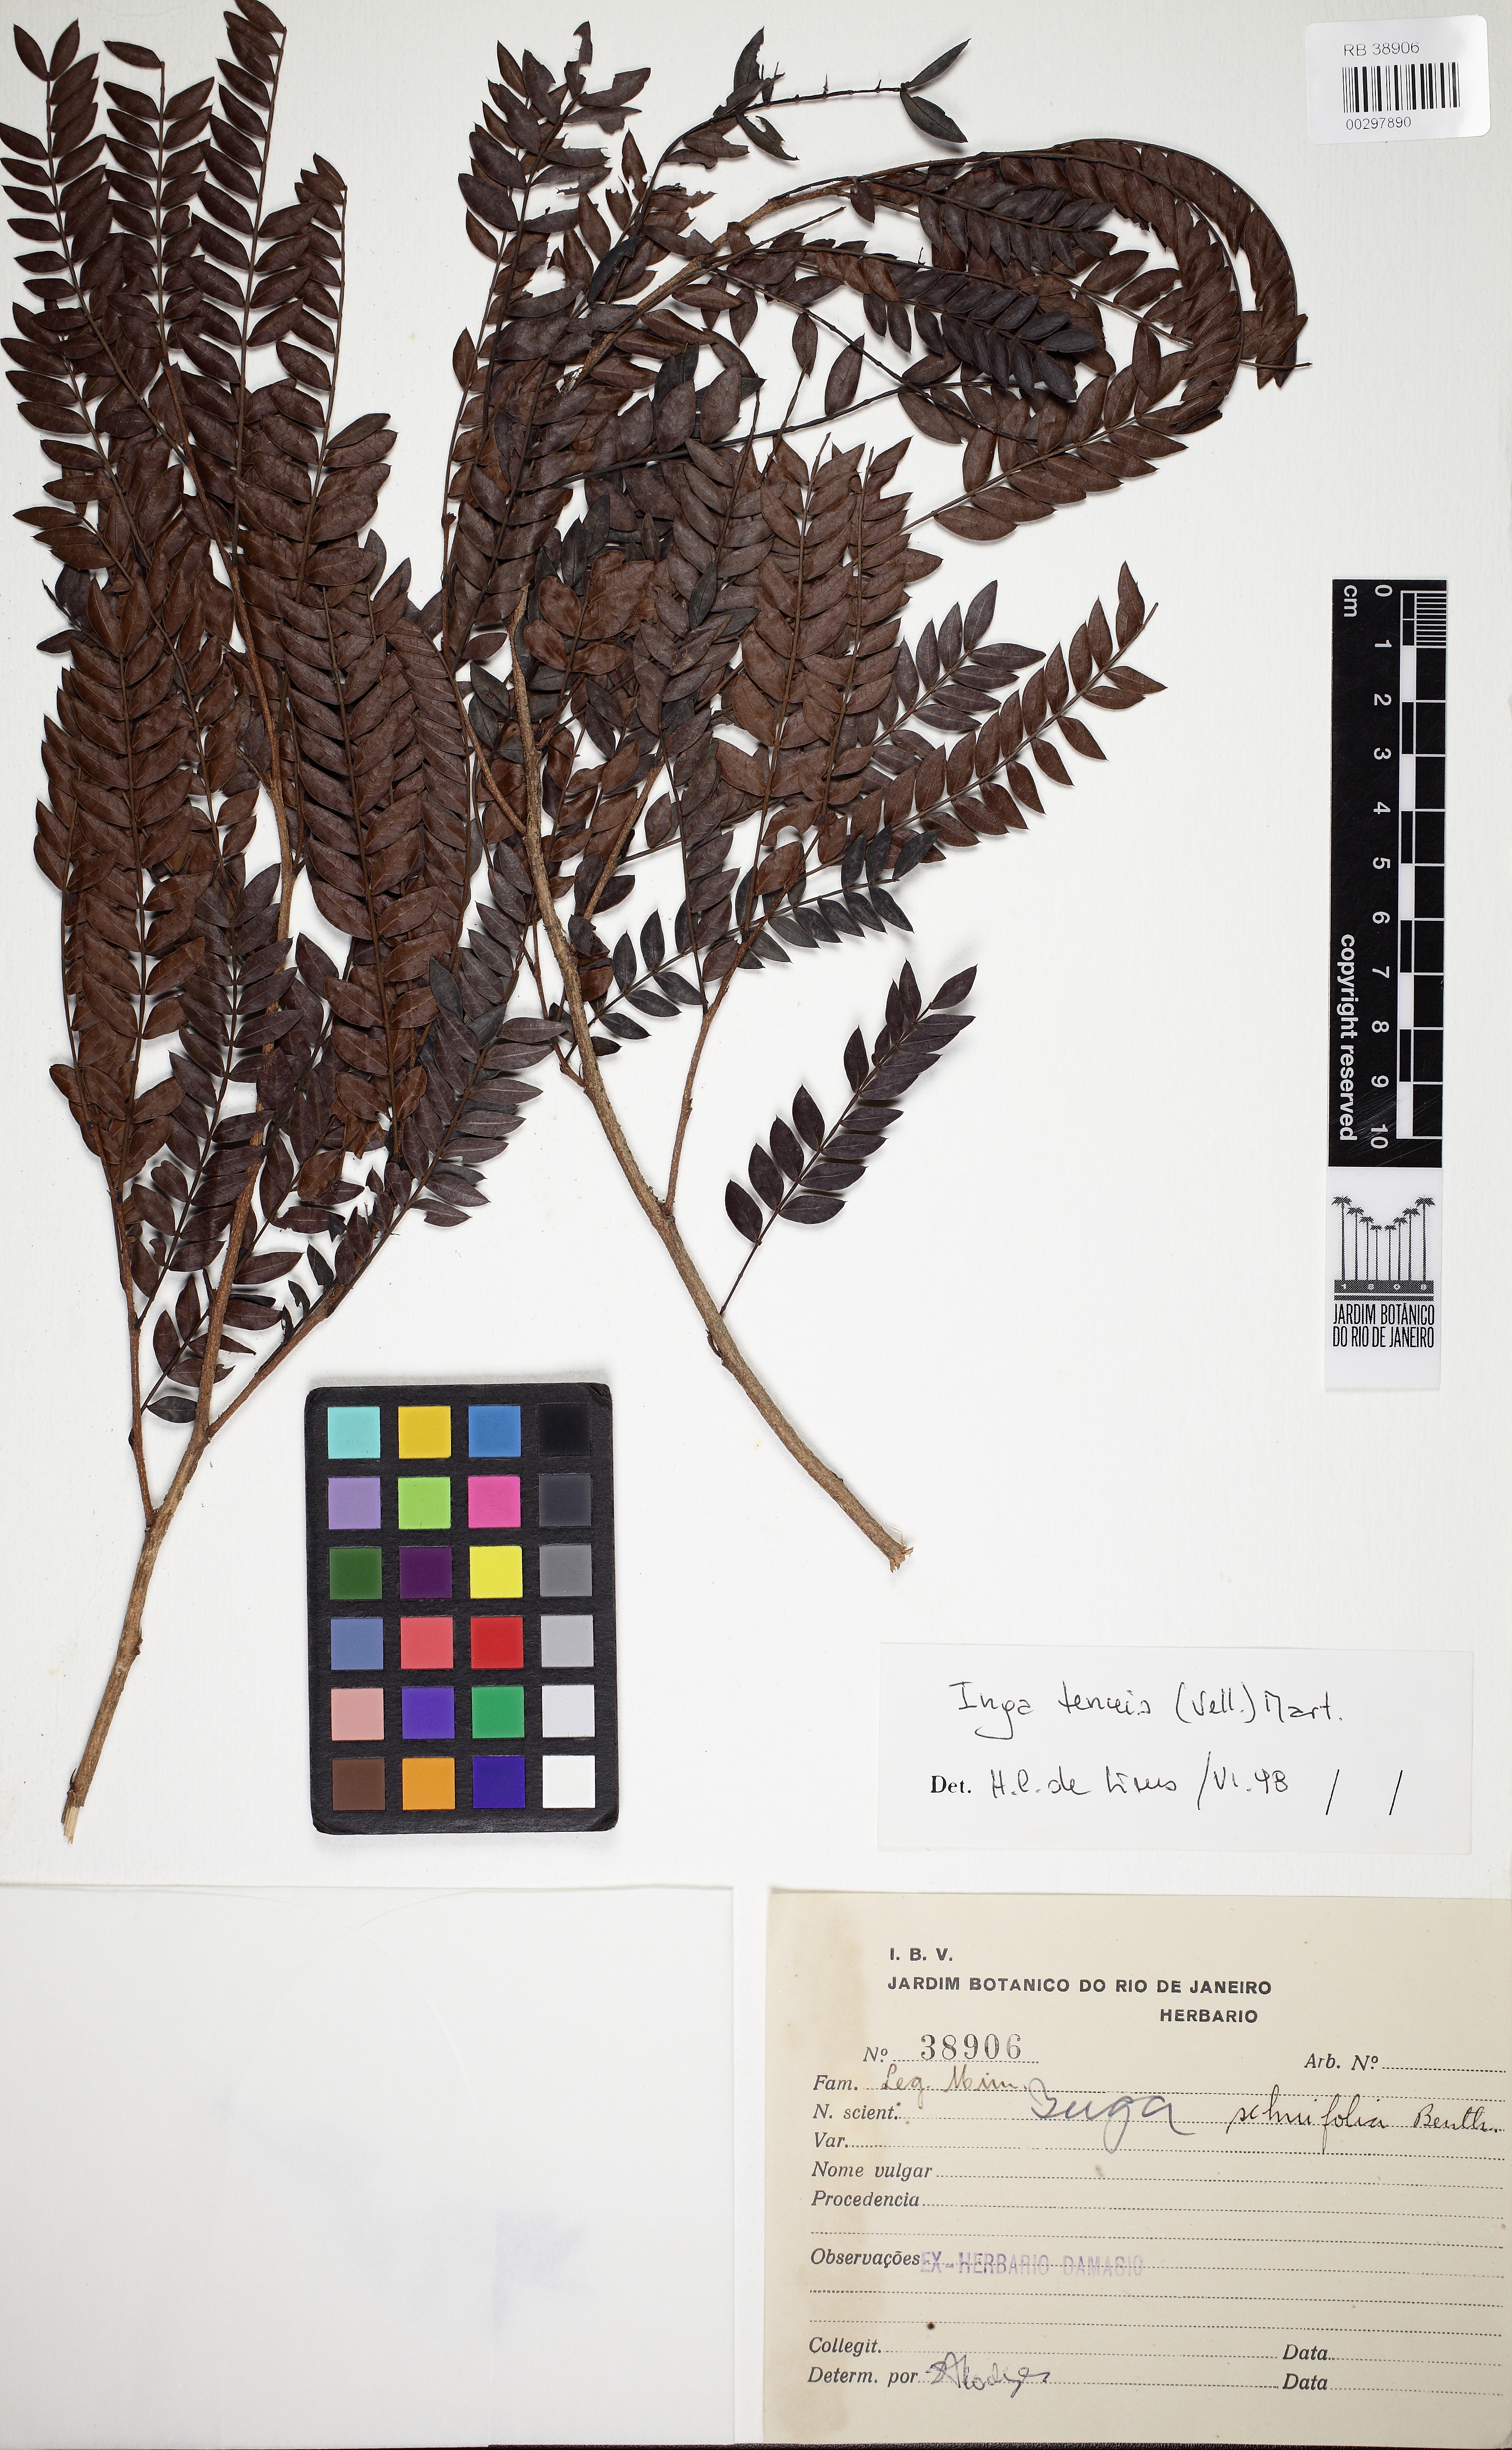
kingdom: Plantae
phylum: Tracheophyta
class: Magnoliopsida
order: Fabales
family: Fabaceae
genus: Inga
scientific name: Inga tenuis
